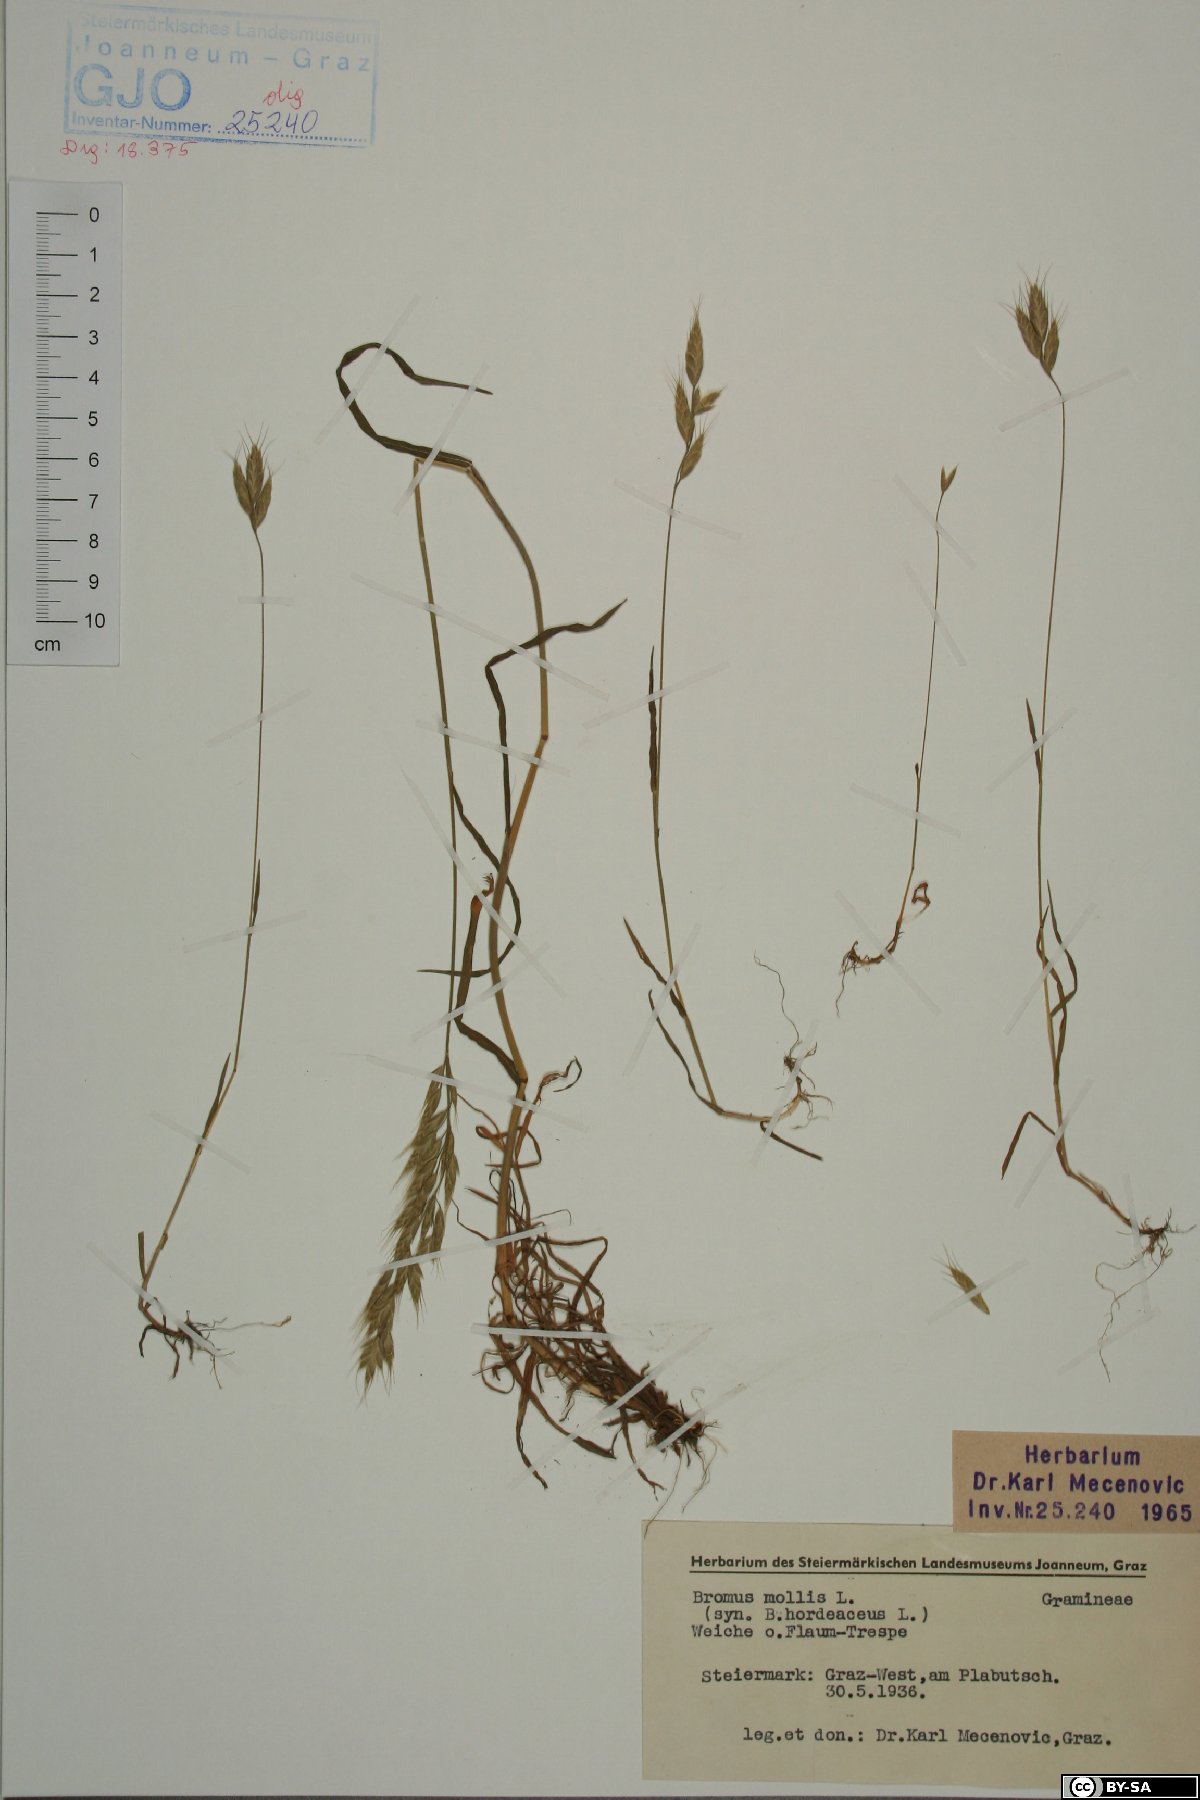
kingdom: Plantae
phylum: Tracheophyta
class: Liliopsida
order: Poales
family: Poaceae
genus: Bromus
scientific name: Bromus hordeaceus
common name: Soft brome
